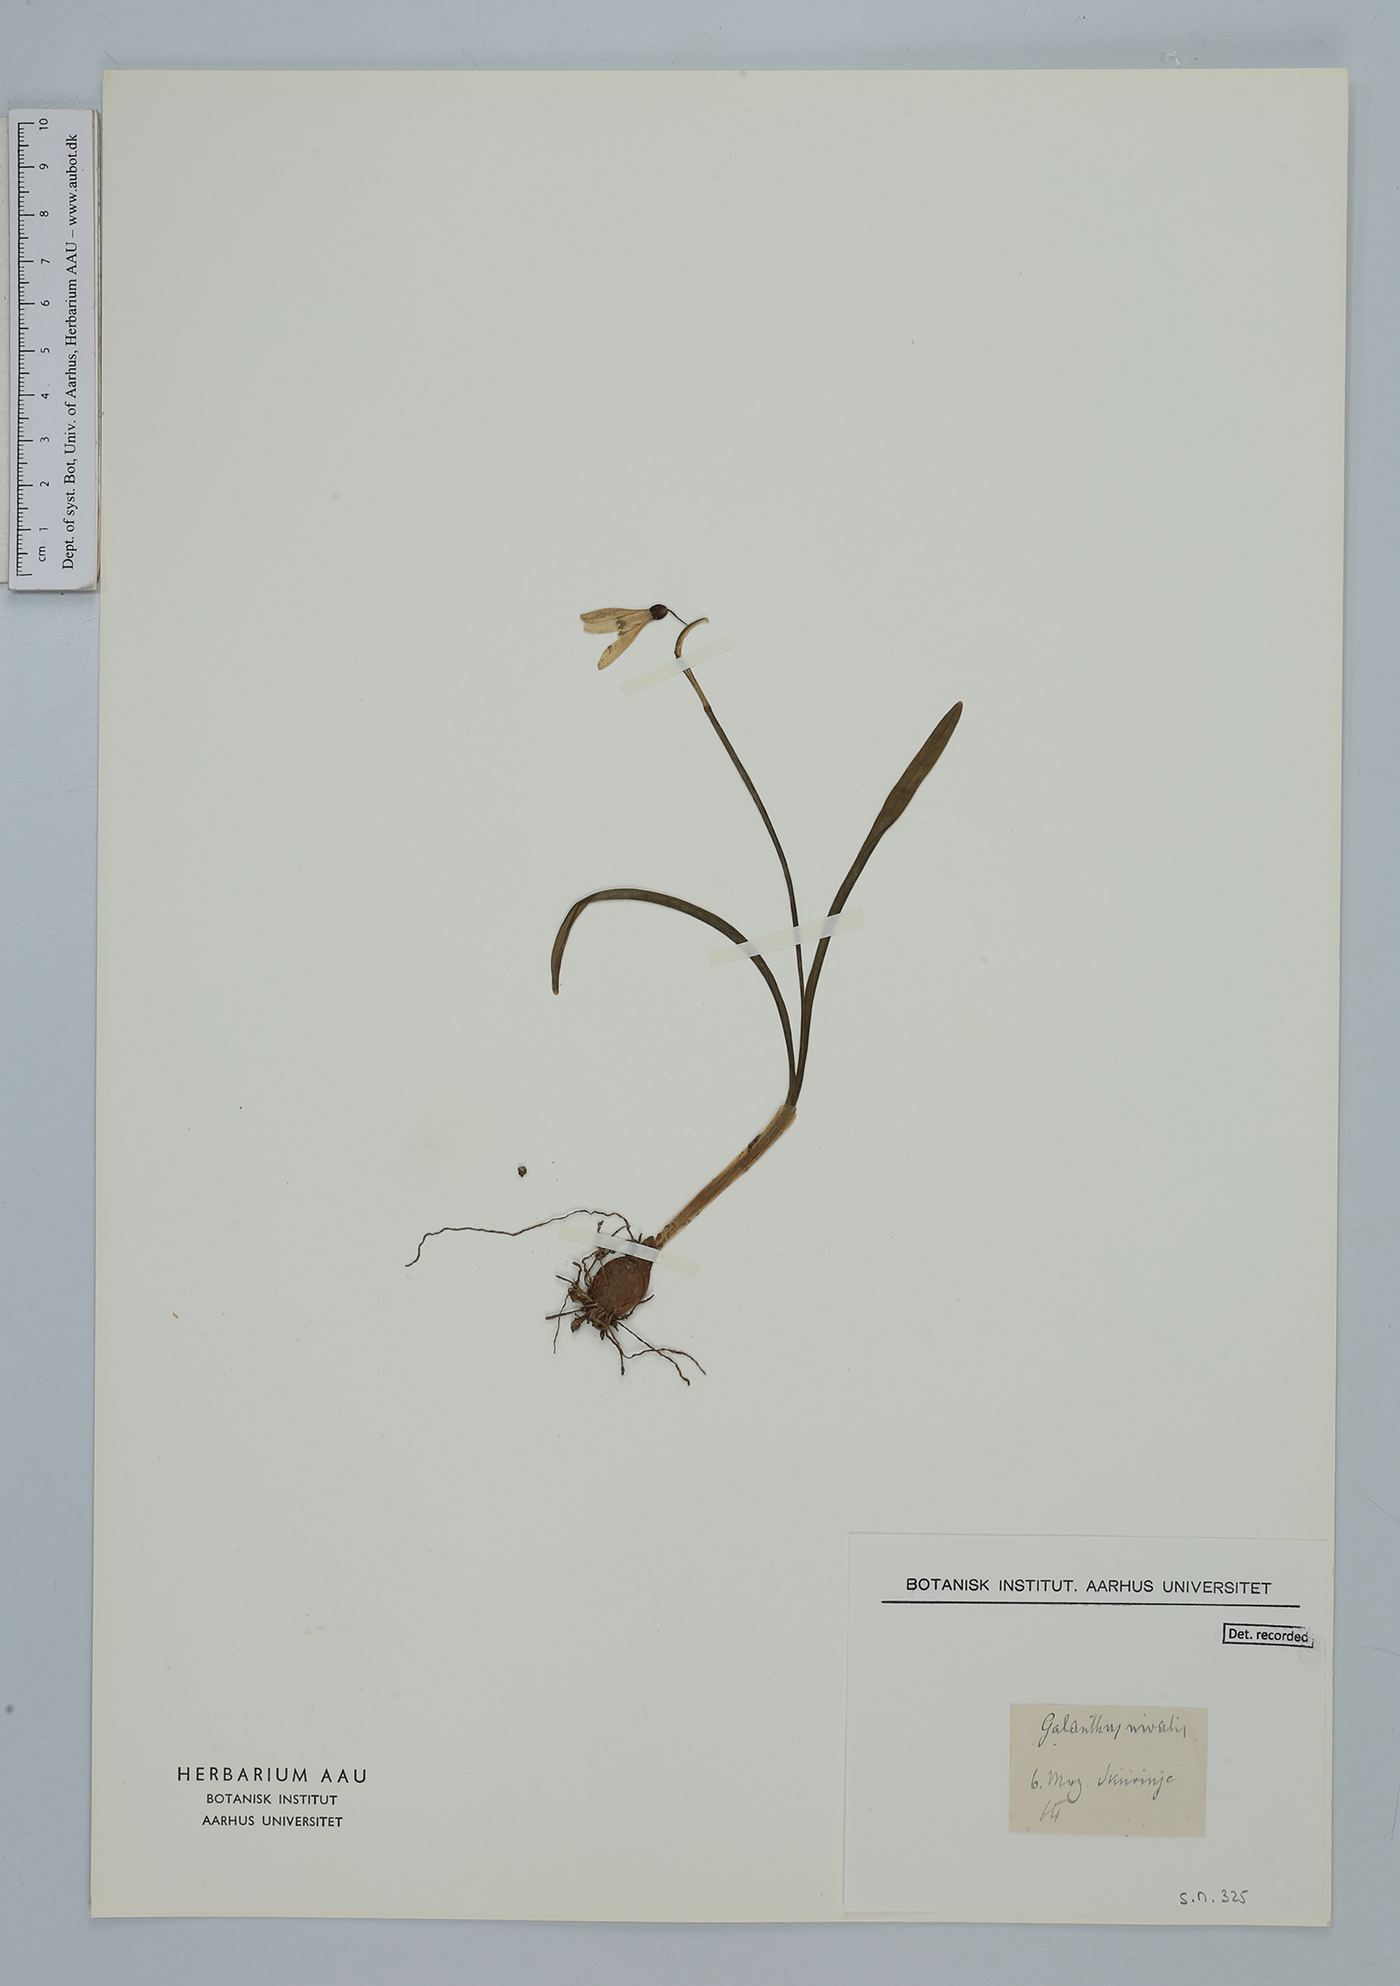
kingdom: Plantae
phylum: Tracheophyta
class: Liliopsida
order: Asparagales
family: Amaryllidaceae
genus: Galanthus
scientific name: Galanthus nivalis
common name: Snowdrop
